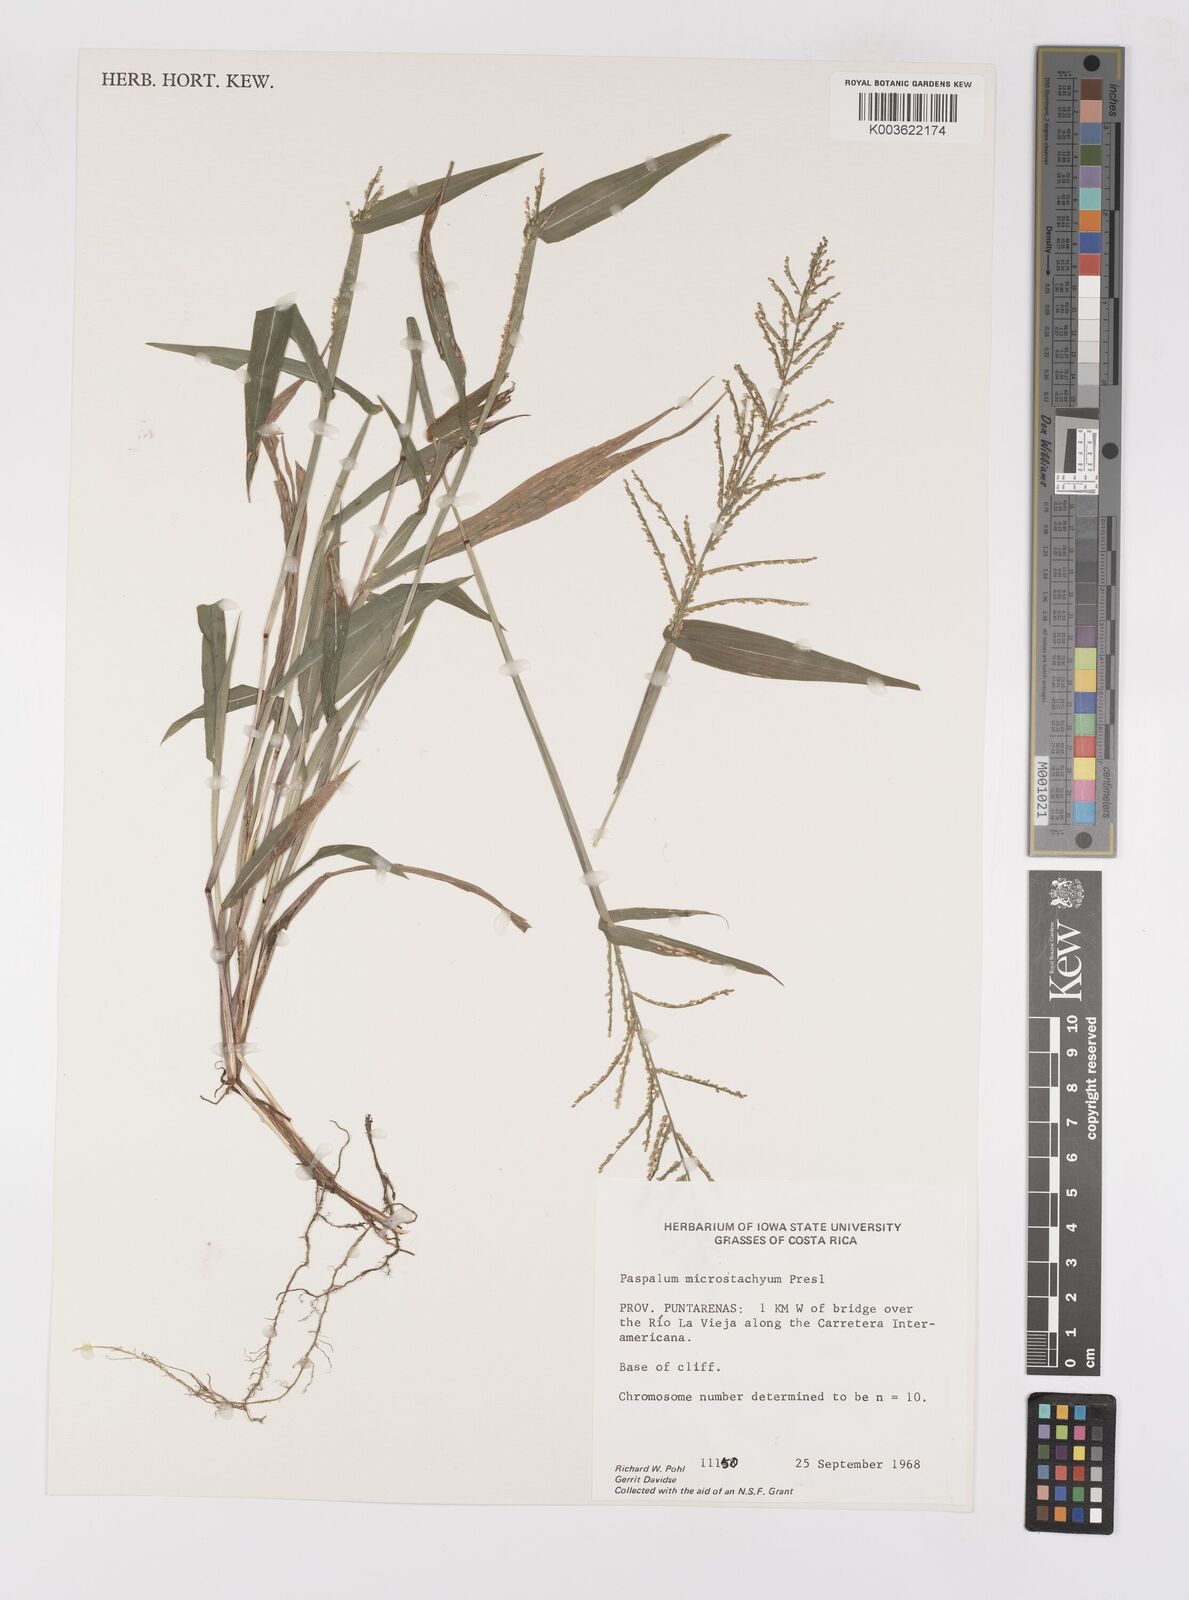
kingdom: Plantae
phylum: Tracheophyta
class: Liliopsida
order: Poales
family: Poaceae
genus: Paspalum
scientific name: Paspalum microstachyum
